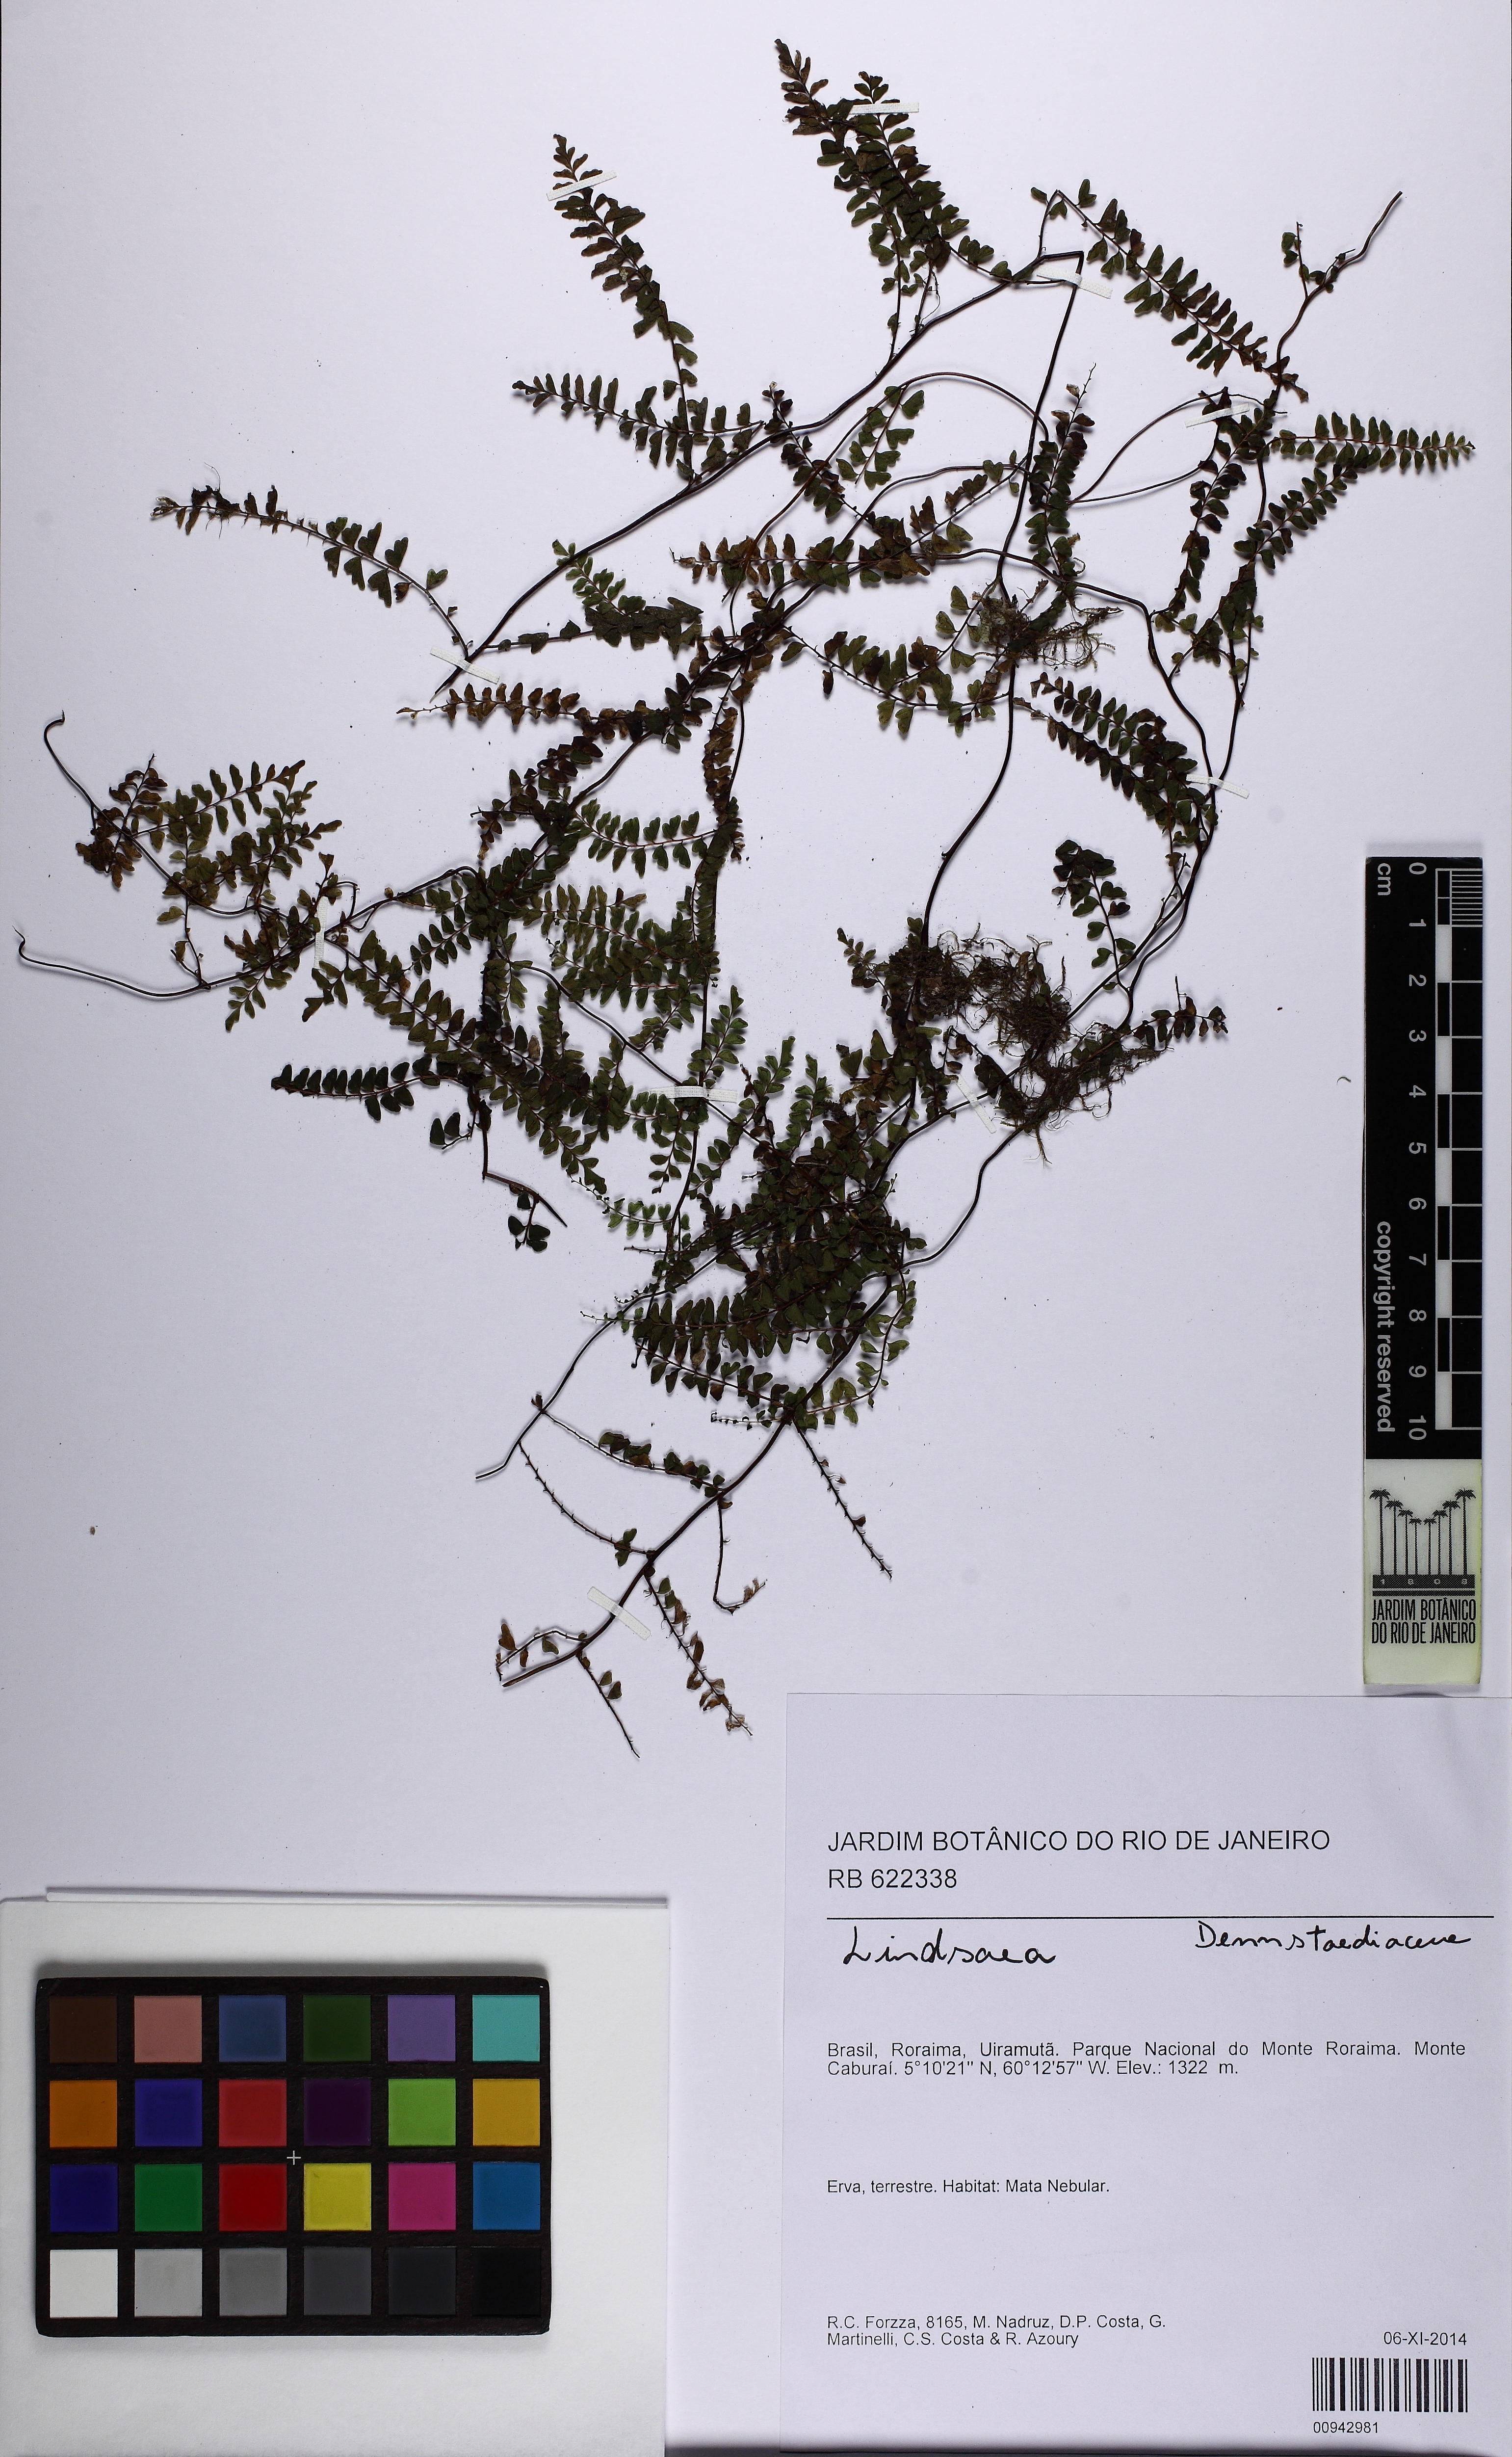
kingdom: Plantae
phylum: Tracheophyta
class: Polypodiopsida
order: Polypodiales
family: Lindsaeaceae
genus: Lindsaea
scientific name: Lindsaea
